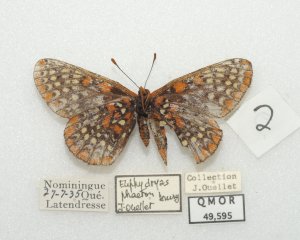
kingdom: Animalia
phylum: Arthropoda
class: Insecta
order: Lepidoptera
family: Nymphalidae
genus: Euphydryas
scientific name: Euphydryas phaeton
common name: Baltimore Checkerspot
